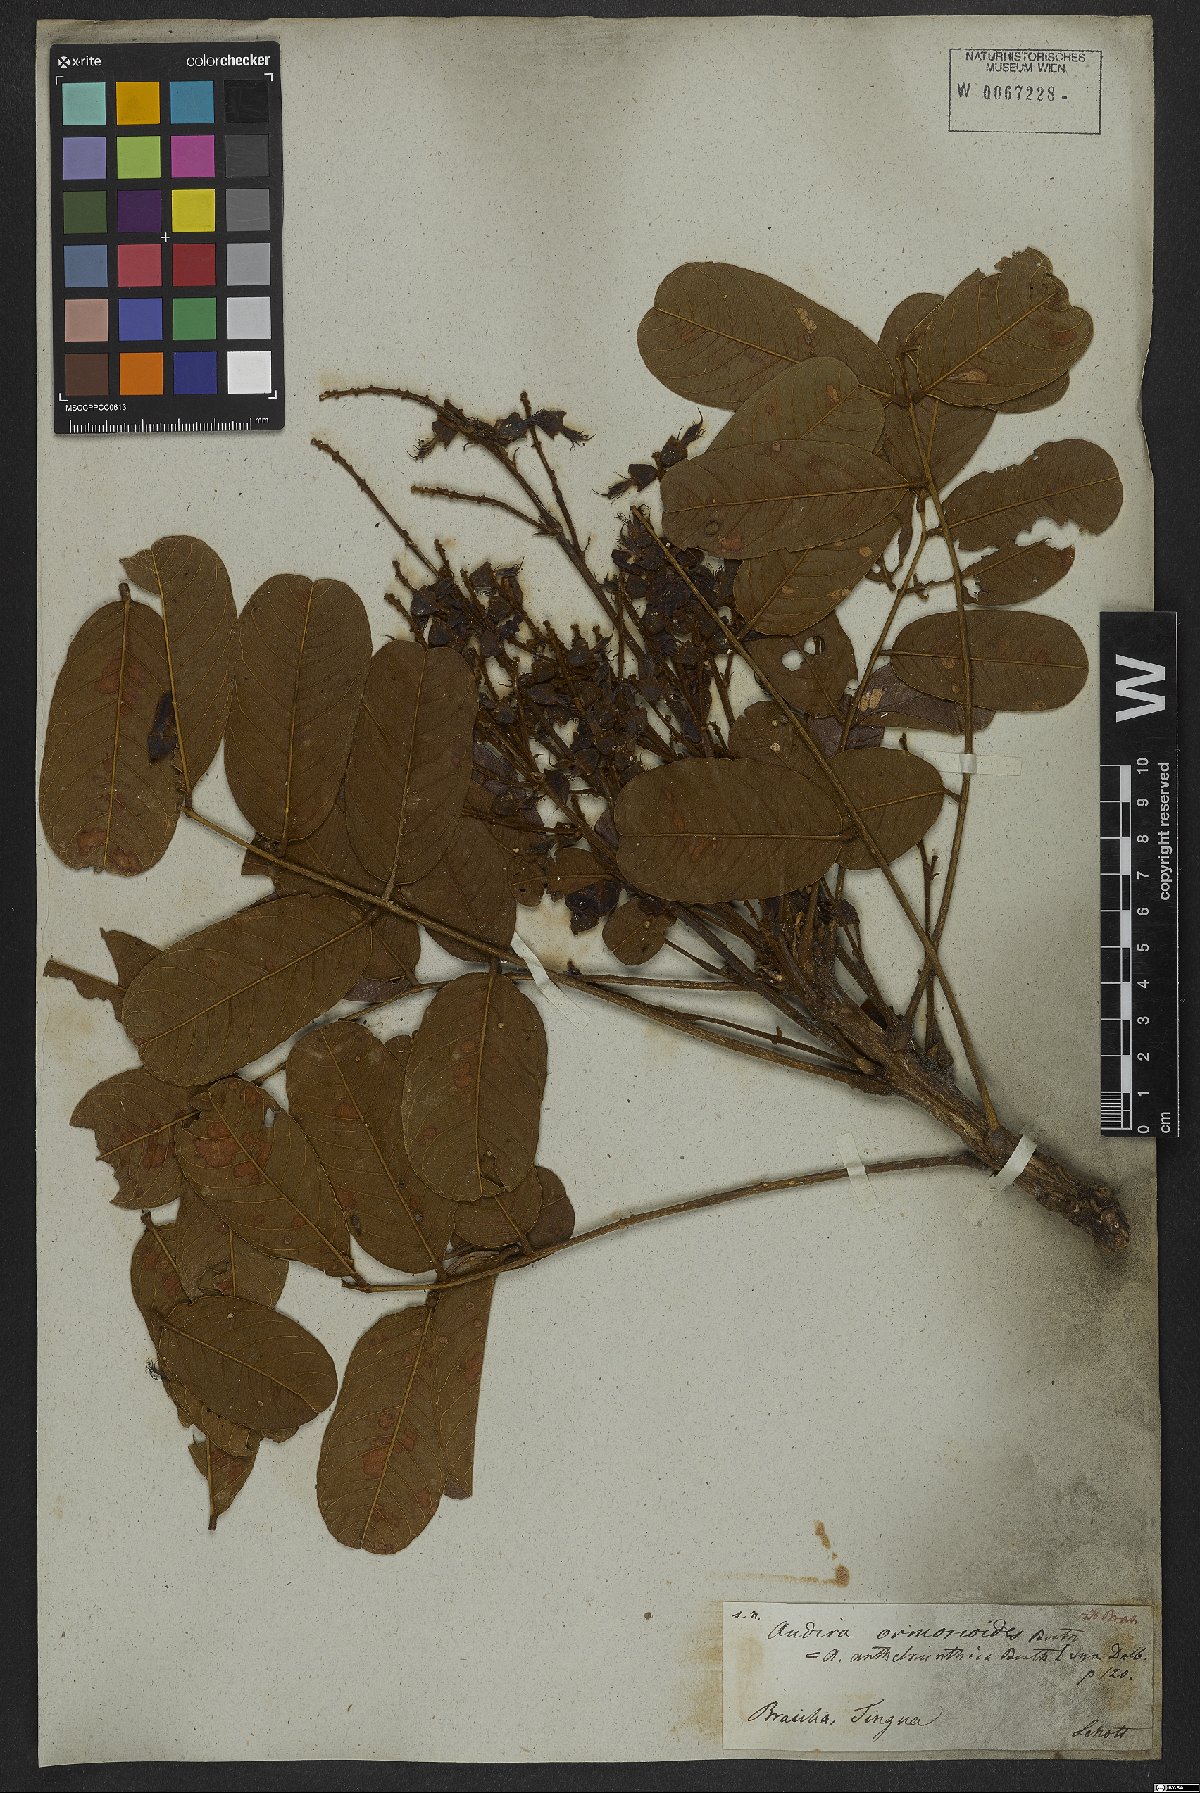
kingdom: Plantae
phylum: Tracheophyta
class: Magnoliopsida
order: Fabales
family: Fabaceae
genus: Andira
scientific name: Andira ormosioides
